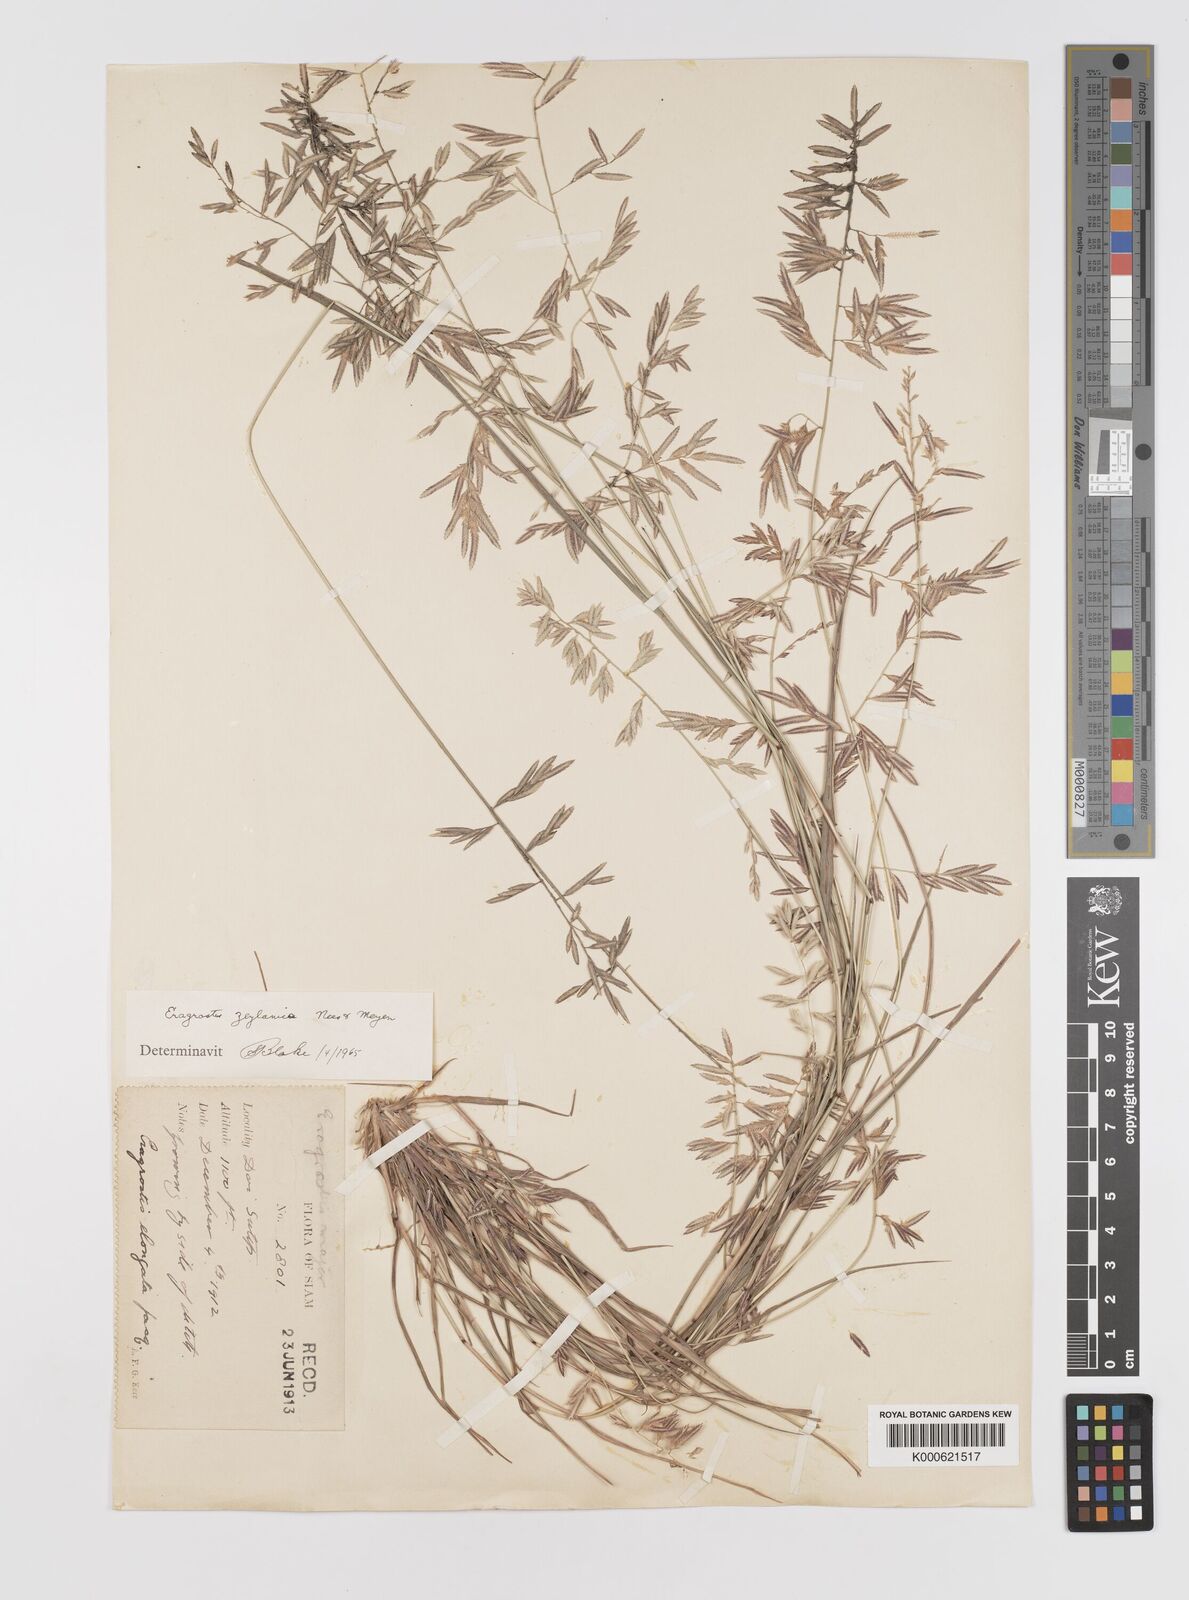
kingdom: Plantae
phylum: Tracheophyta
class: Liliopsida
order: Poales
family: Poaceae
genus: Eragrostis
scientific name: Eragrostis zeylanica
